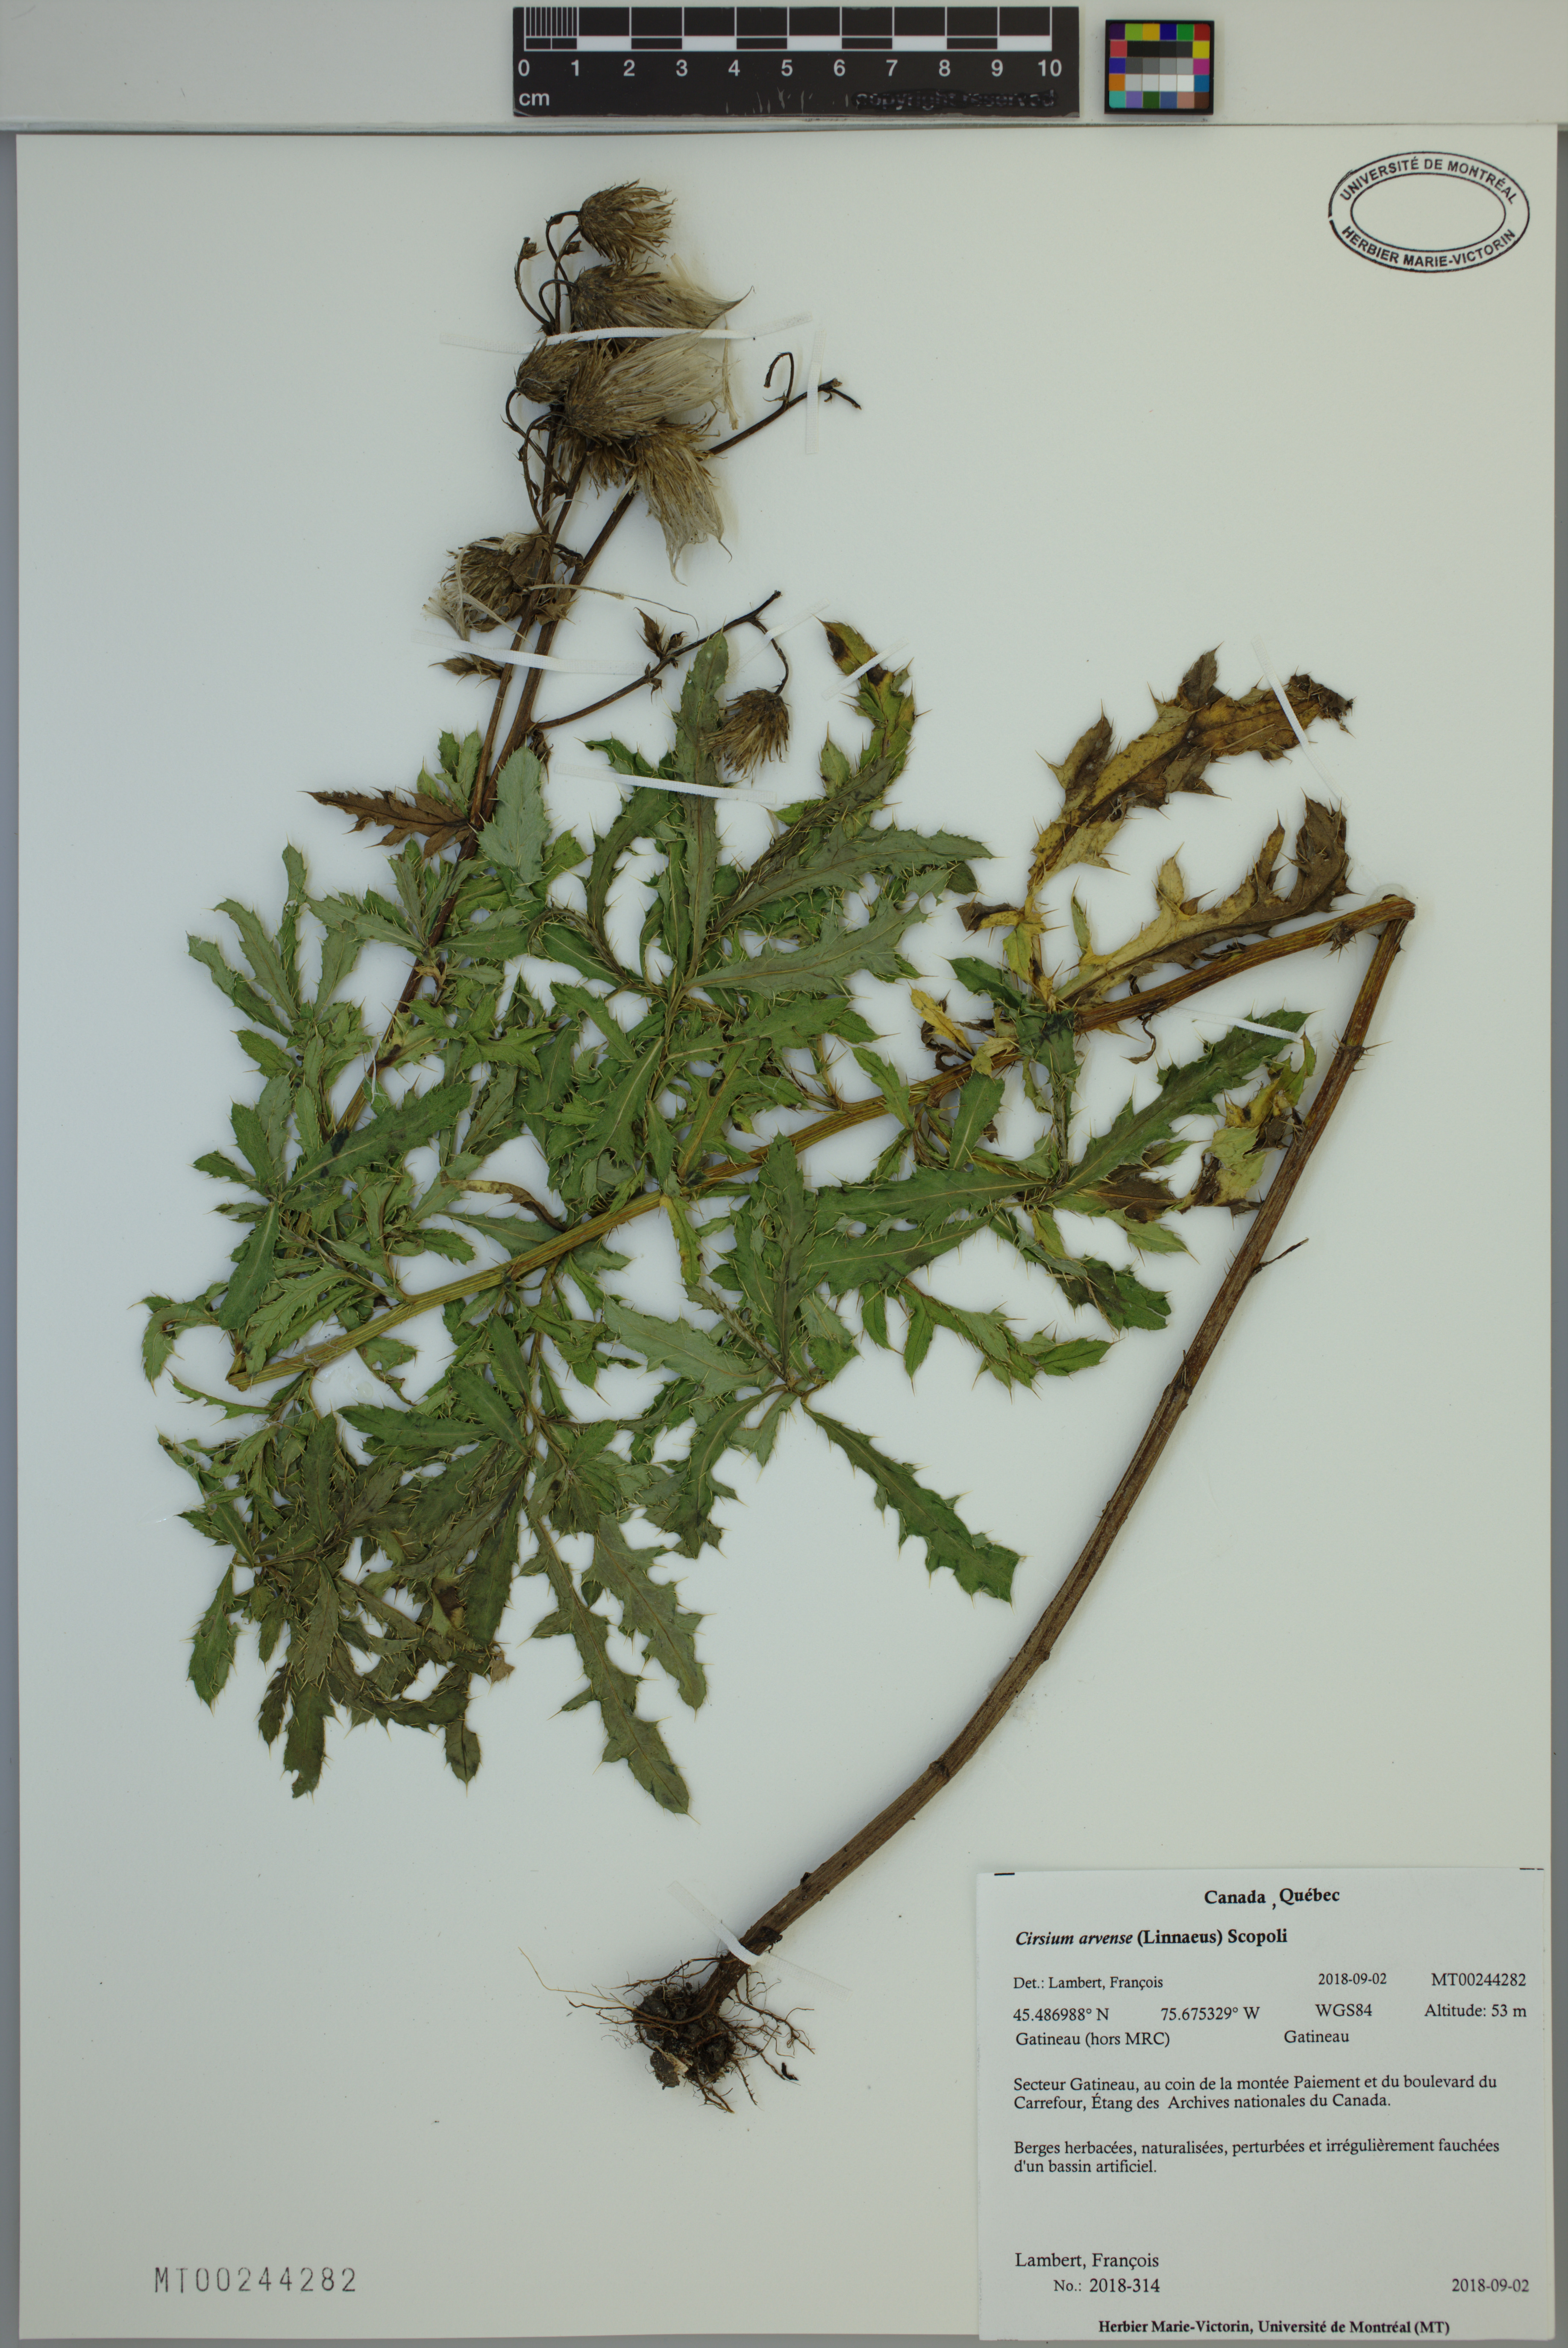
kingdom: Plantae
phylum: Tracheophyta
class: Magnoliopsida
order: Asterales
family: Asteraceae
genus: Cirsium
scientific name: Cirsium arvense
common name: Creeping thistle
